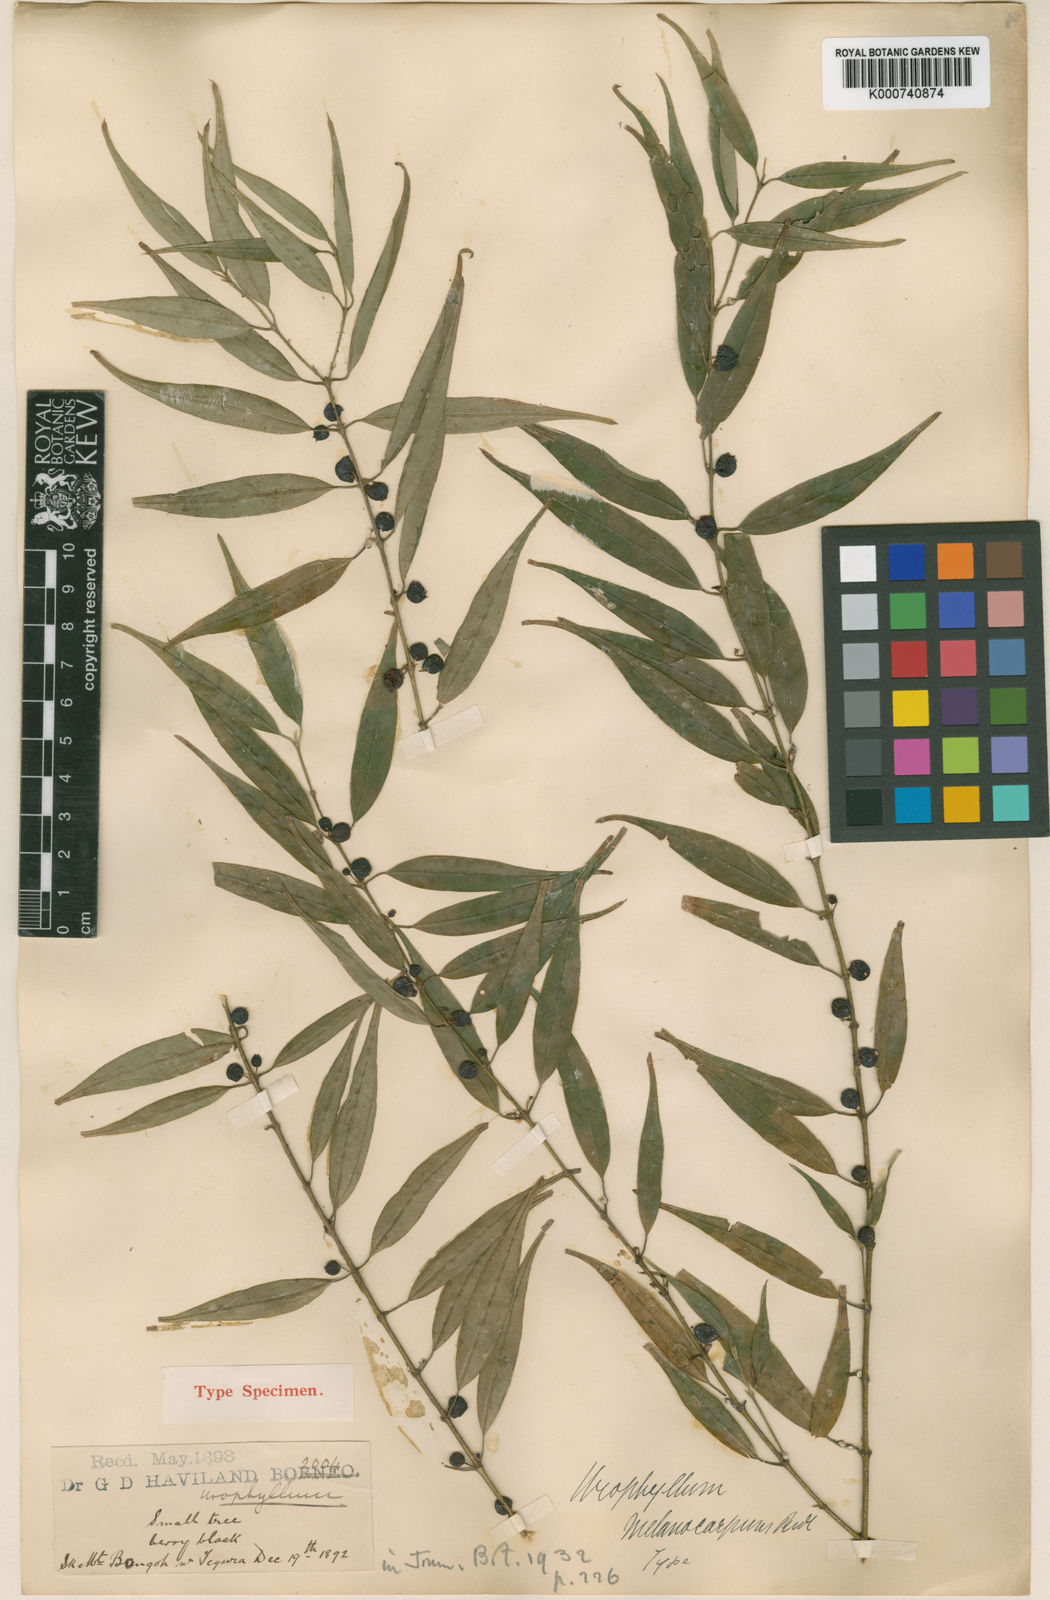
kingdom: Plantae
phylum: Tracheophyta
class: Magnoliopsida
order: Gentianales
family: Rubiaceae
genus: Urophyllum
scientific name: Urophyllum melanocarpum
